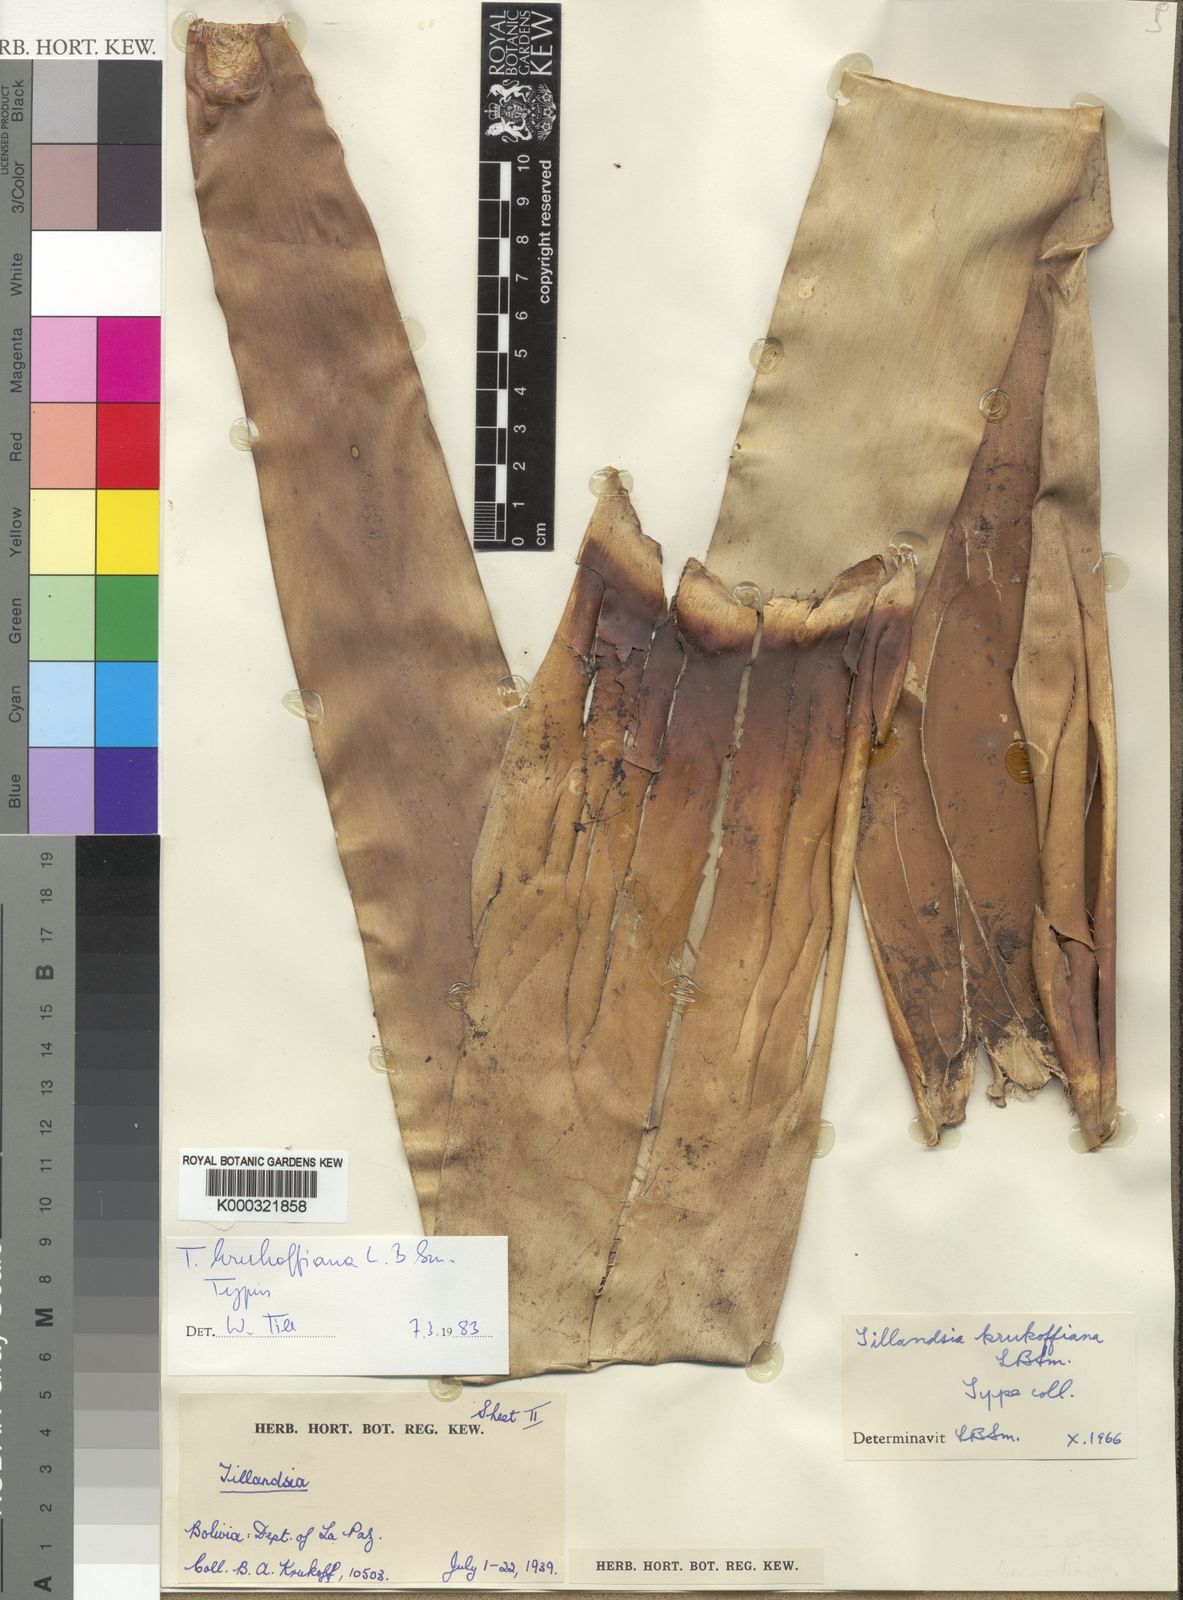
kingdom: Plantae
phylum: Tracheophyta
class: Liliopsida
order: Poales
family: Bromeliaceae
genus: Tillandsia
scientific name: Tillandsia krukoffiana
